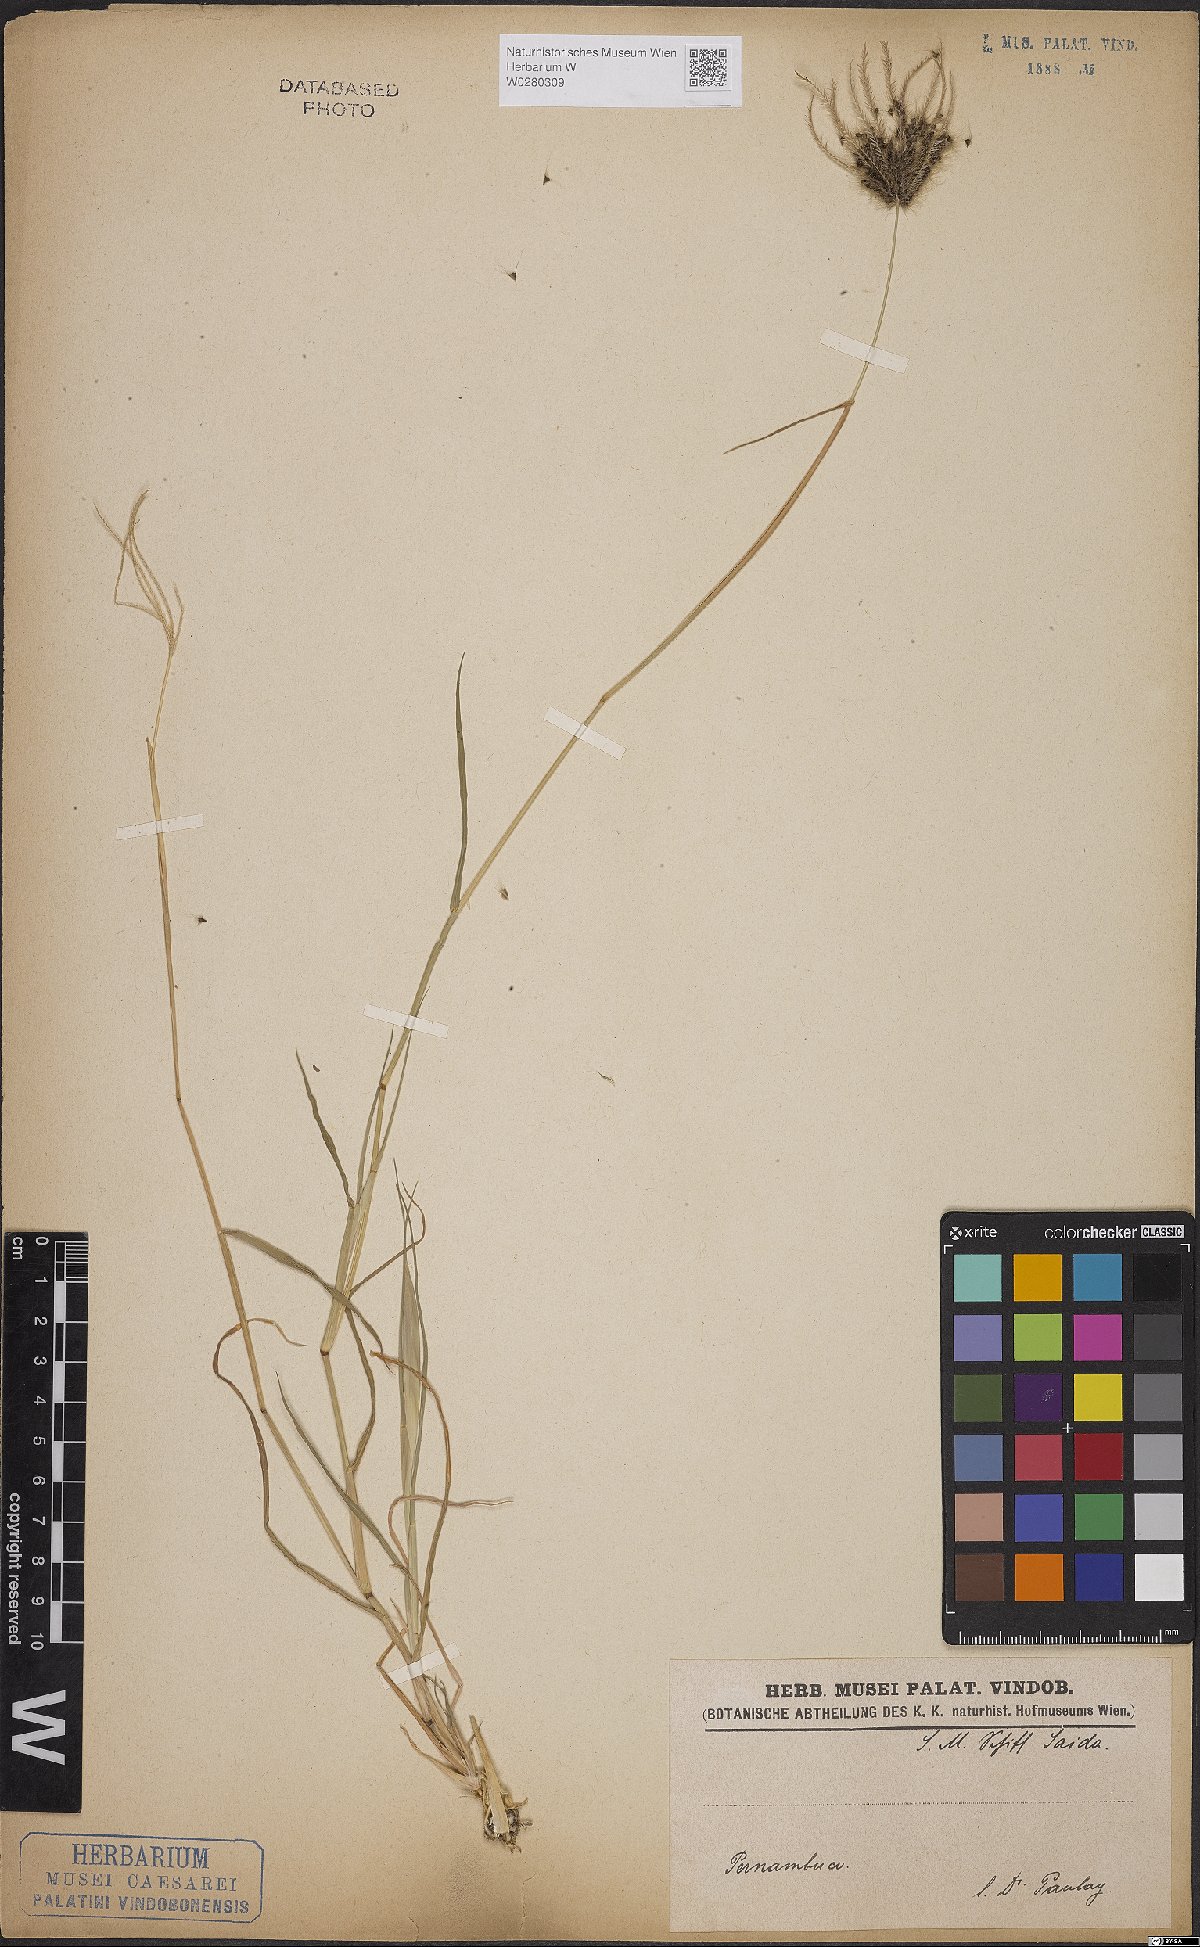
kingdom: Plantae
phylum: Tracheophyta
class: Liliopsida
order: Poales
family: Poaceae
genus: Chloris
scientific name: Chloris
